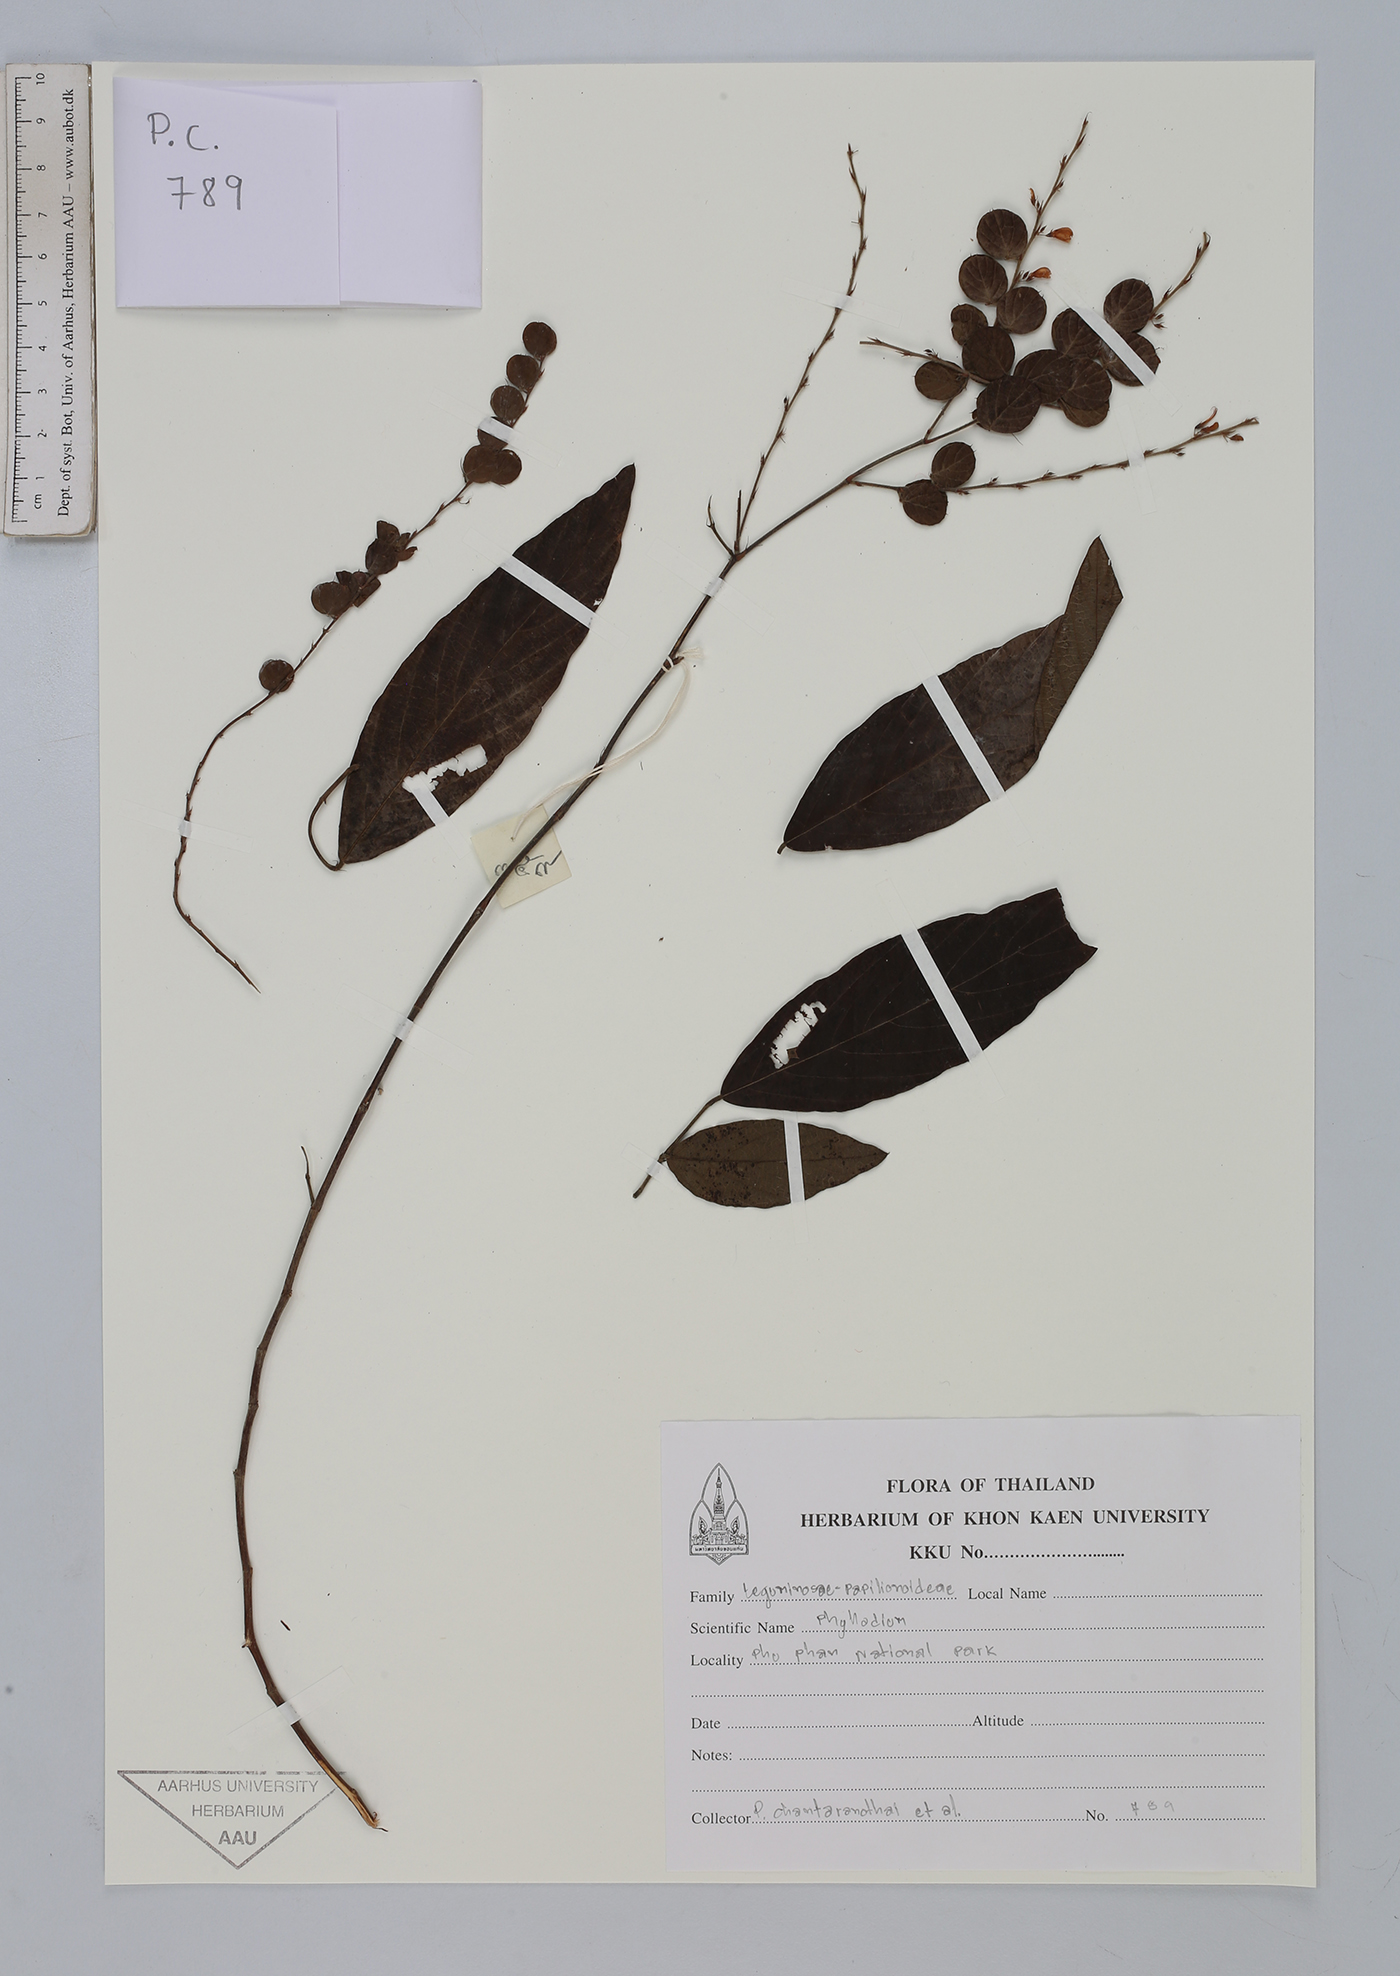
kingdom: Plantae
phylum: Tracheophyta
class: Magnoliopsida
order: Fabales
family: Fabaceae
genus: Phyllodium
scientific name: Phyllodium longipes
